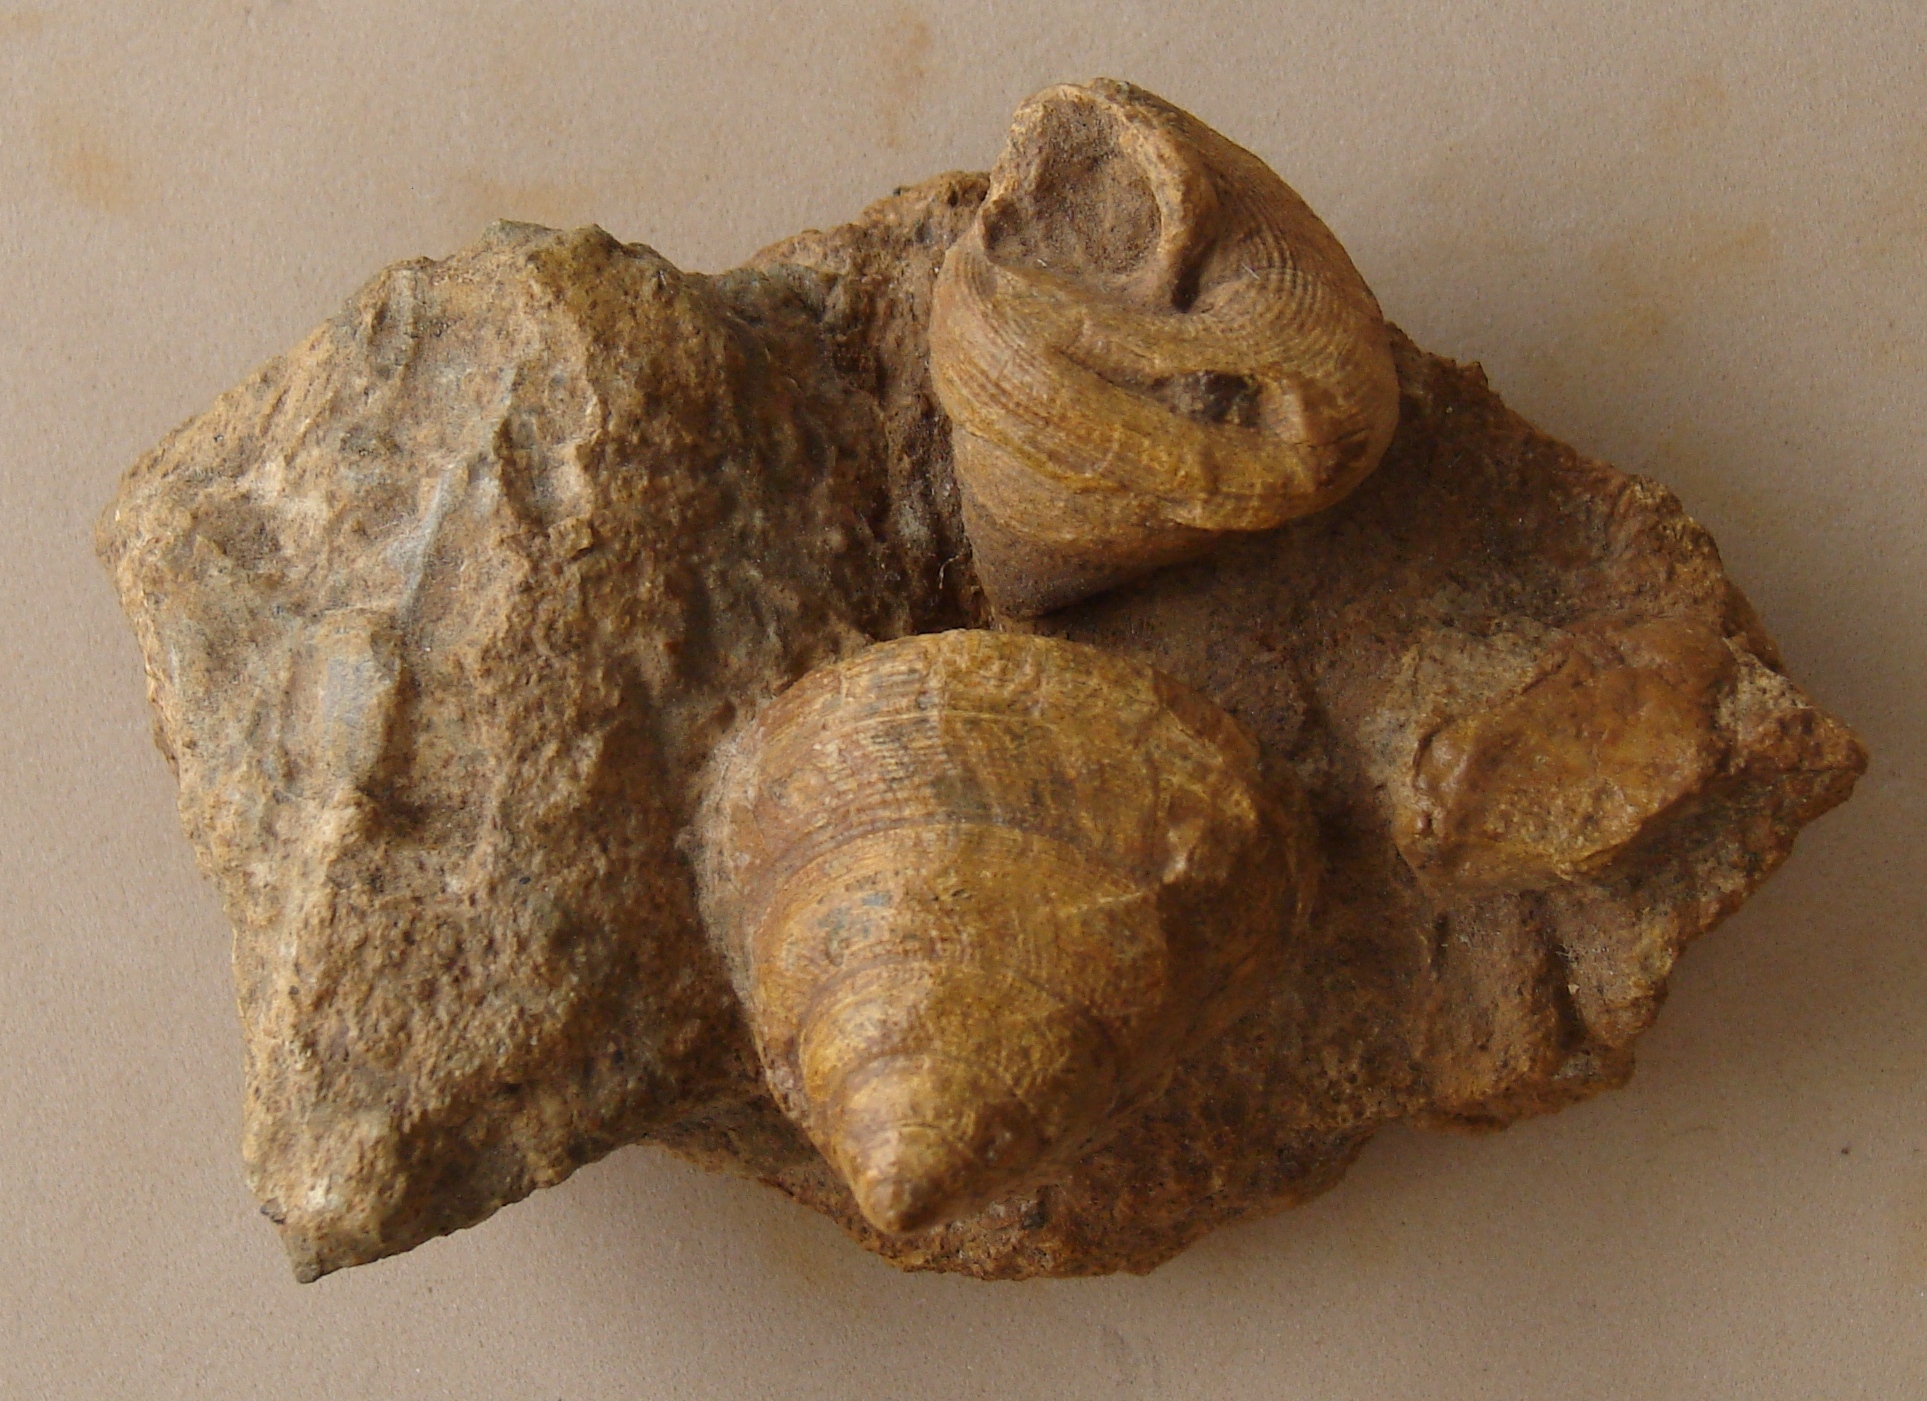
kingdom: Animalia
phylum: Mollusca
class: Gastropoda
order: Pleurotomariida
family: Pleurotomariidae
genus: Bathrotomaria
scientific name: Bathrotomaria Pleurotomaria subreticulata
